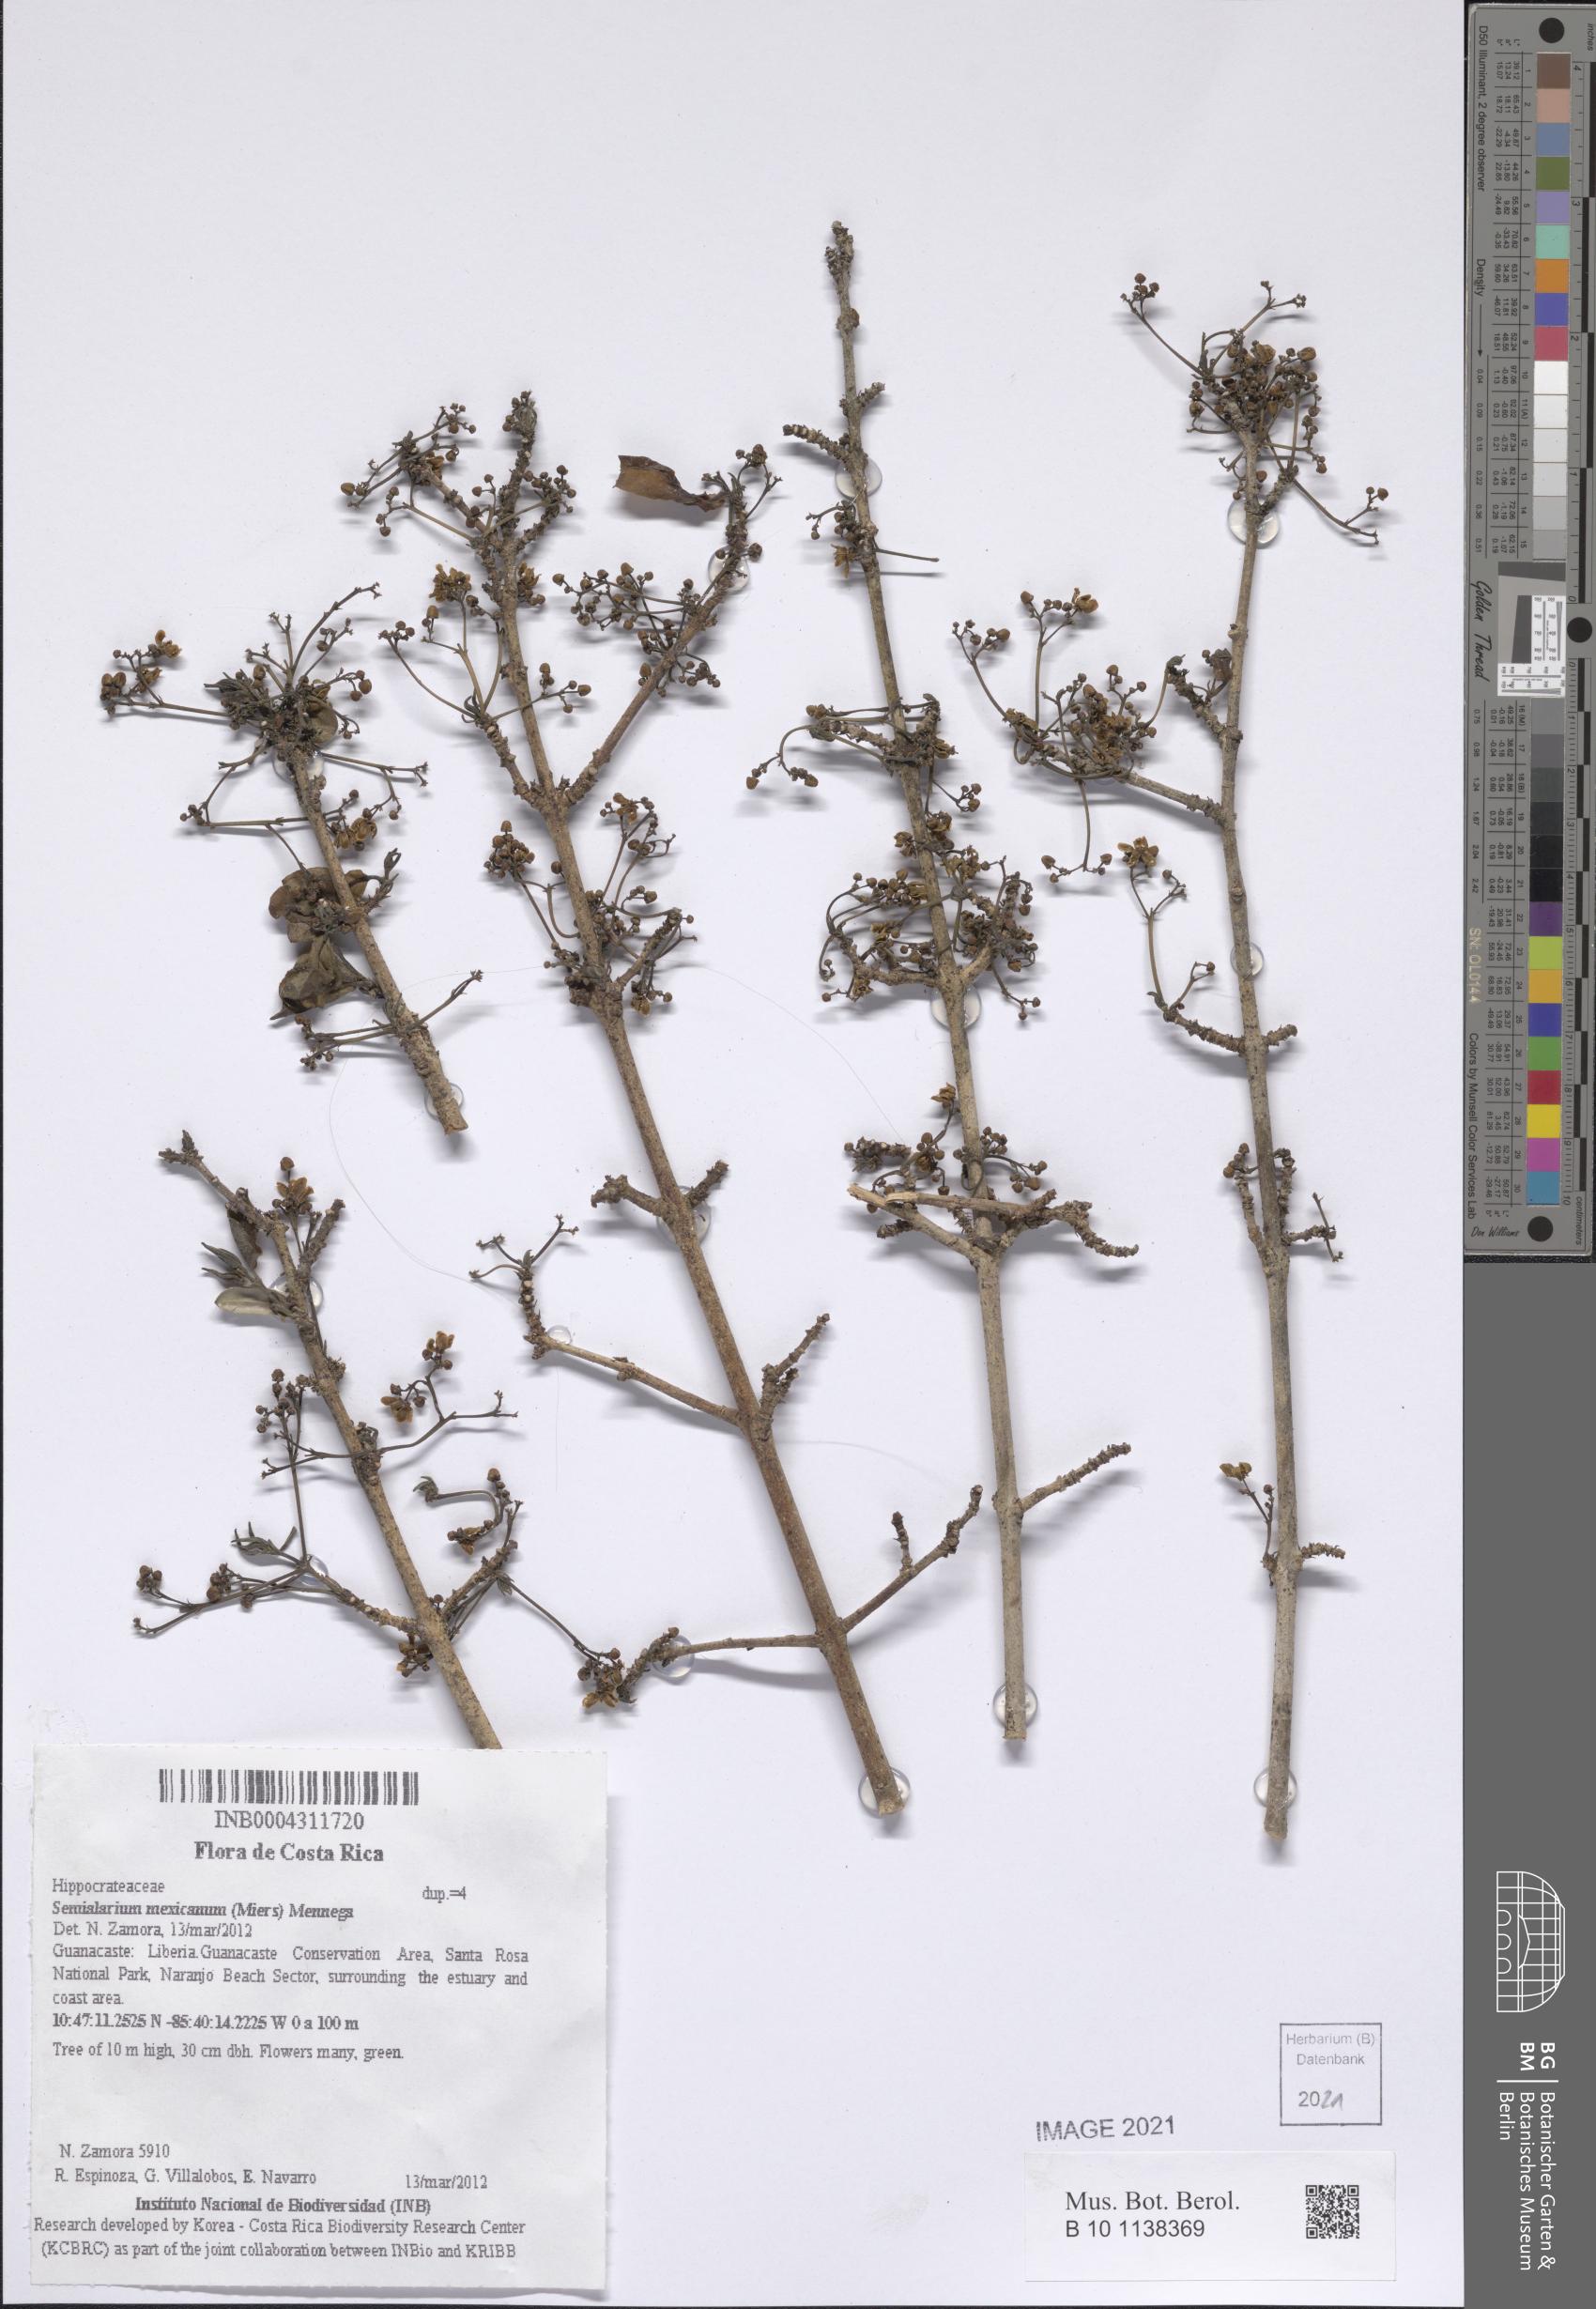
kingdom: Plantae
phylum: Tracheophyta
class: Magnoliopsida
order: Celastrales
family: Celastraceae
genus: Semialarium
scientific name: Semialarium mexicanum
